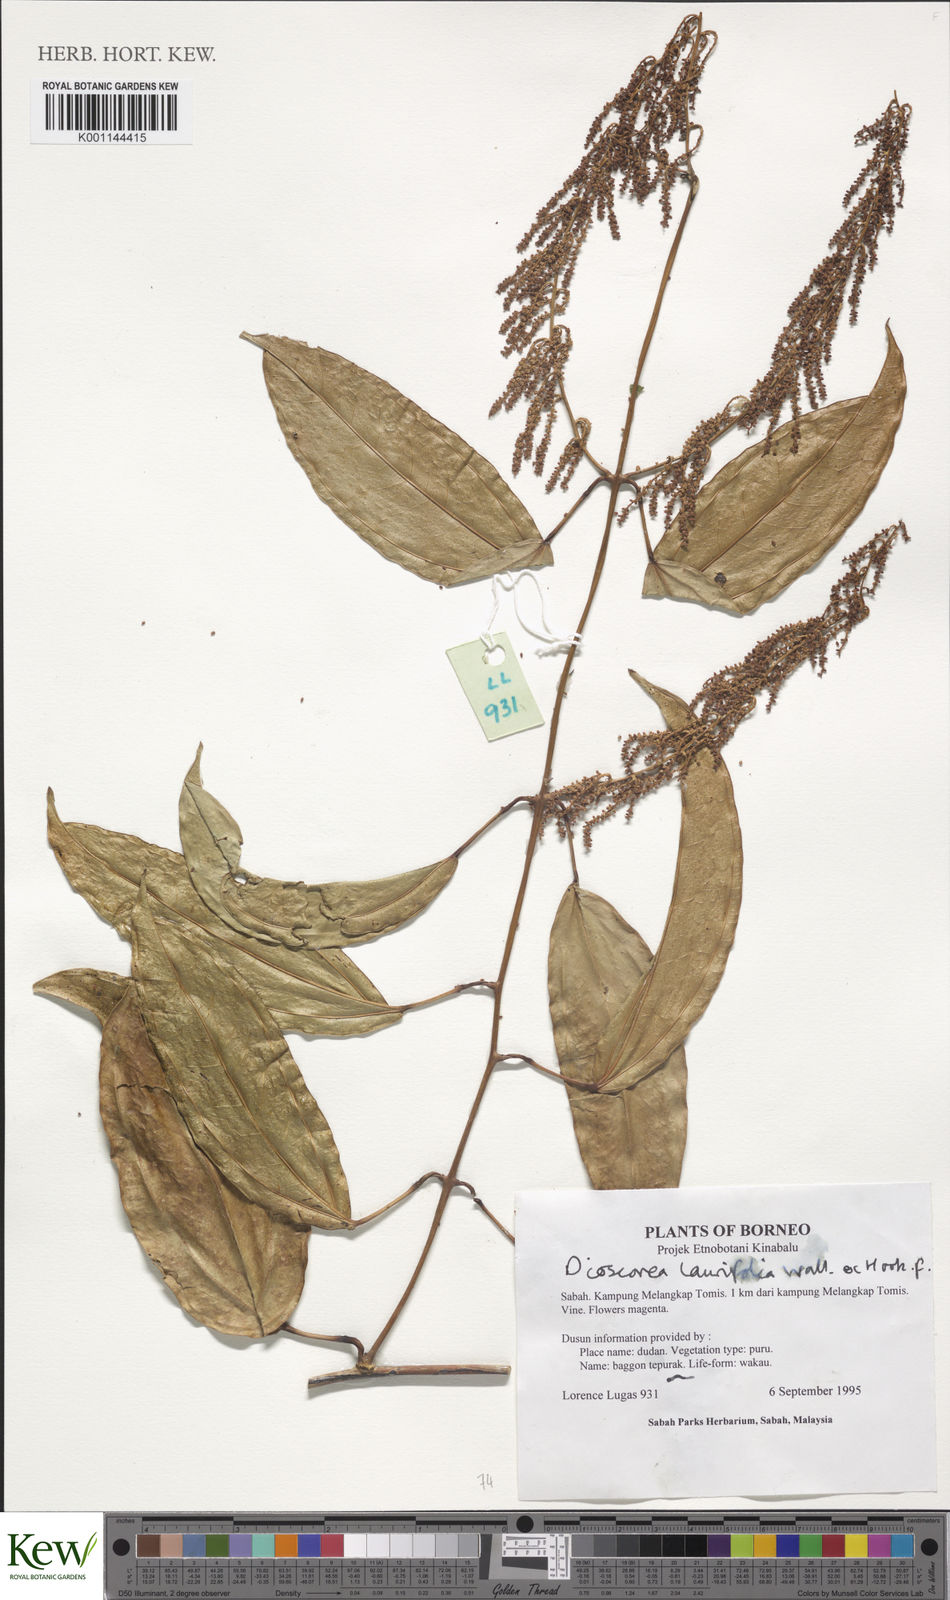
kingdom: Plantae
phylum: Tracheophyta
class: Liliopsida
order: Dioscoreales
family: Dioscoreaceae
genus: Dioscorea
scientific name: Dioscorea laurifolia
